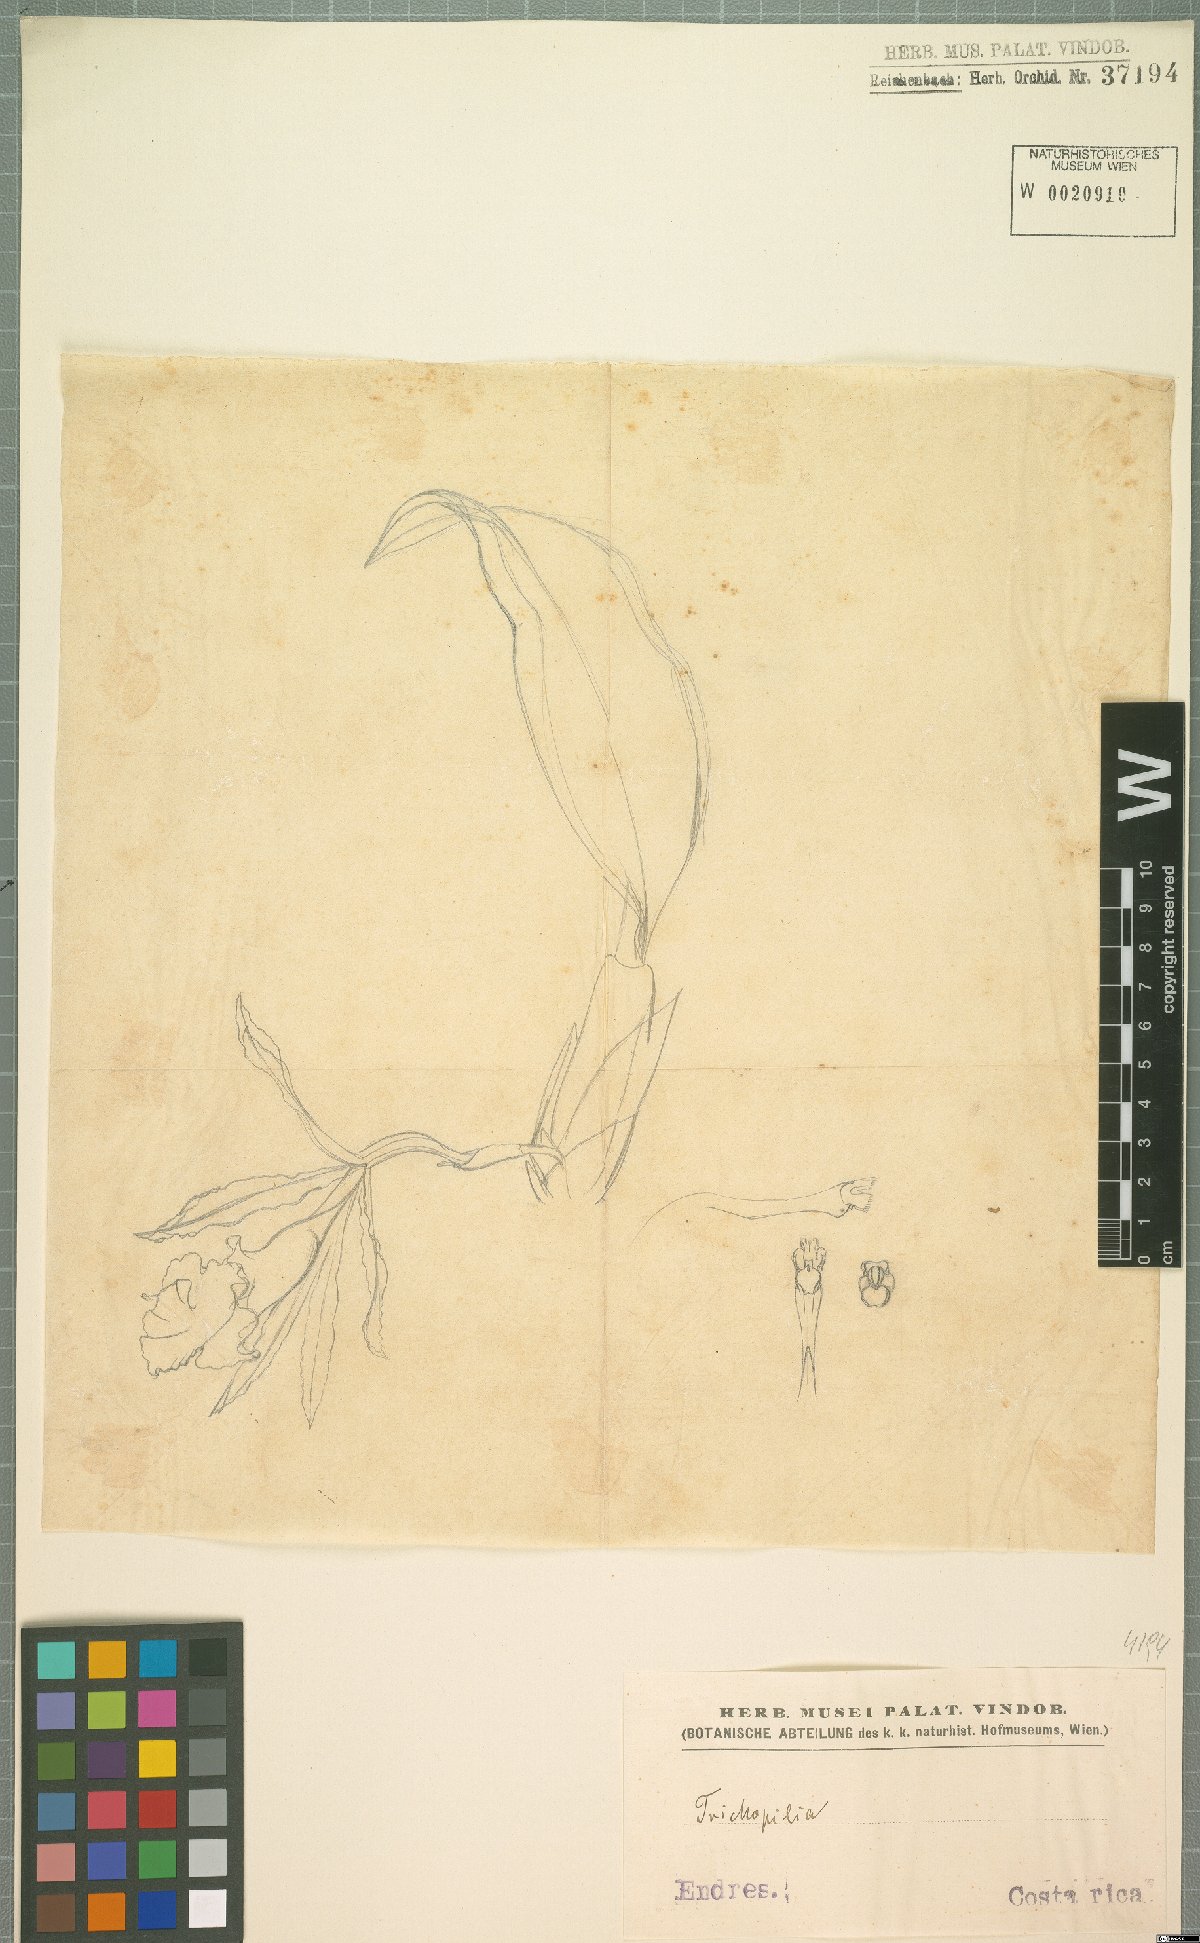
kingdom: Plantae
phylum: Tracheophyta
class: Liliopsida
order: Asparagales
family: Orchidaceae
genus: Trichopilia
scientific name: Trichopilia
